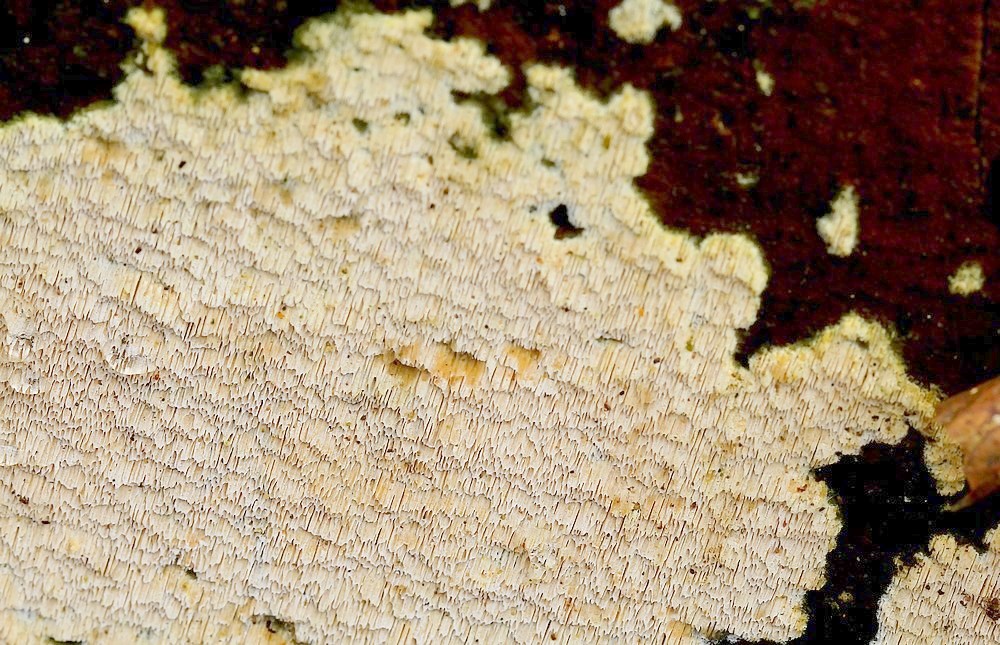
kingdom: Fungi
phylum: Basidiomycota
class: Agaricomycetes
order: Polyporales
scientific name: Polyporales
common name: poresvampordenen
